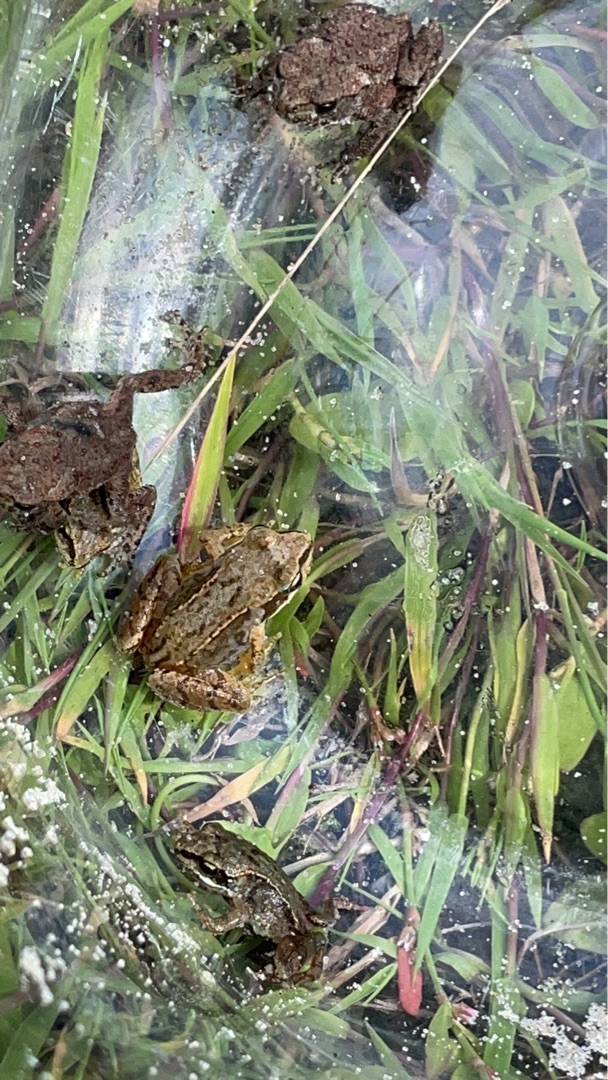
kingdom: Animalia
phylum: Chordata
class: Amphibia
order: Anura
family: Ranidae
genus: Rana
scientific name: Rana temporaria
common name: Butsnudet frø
